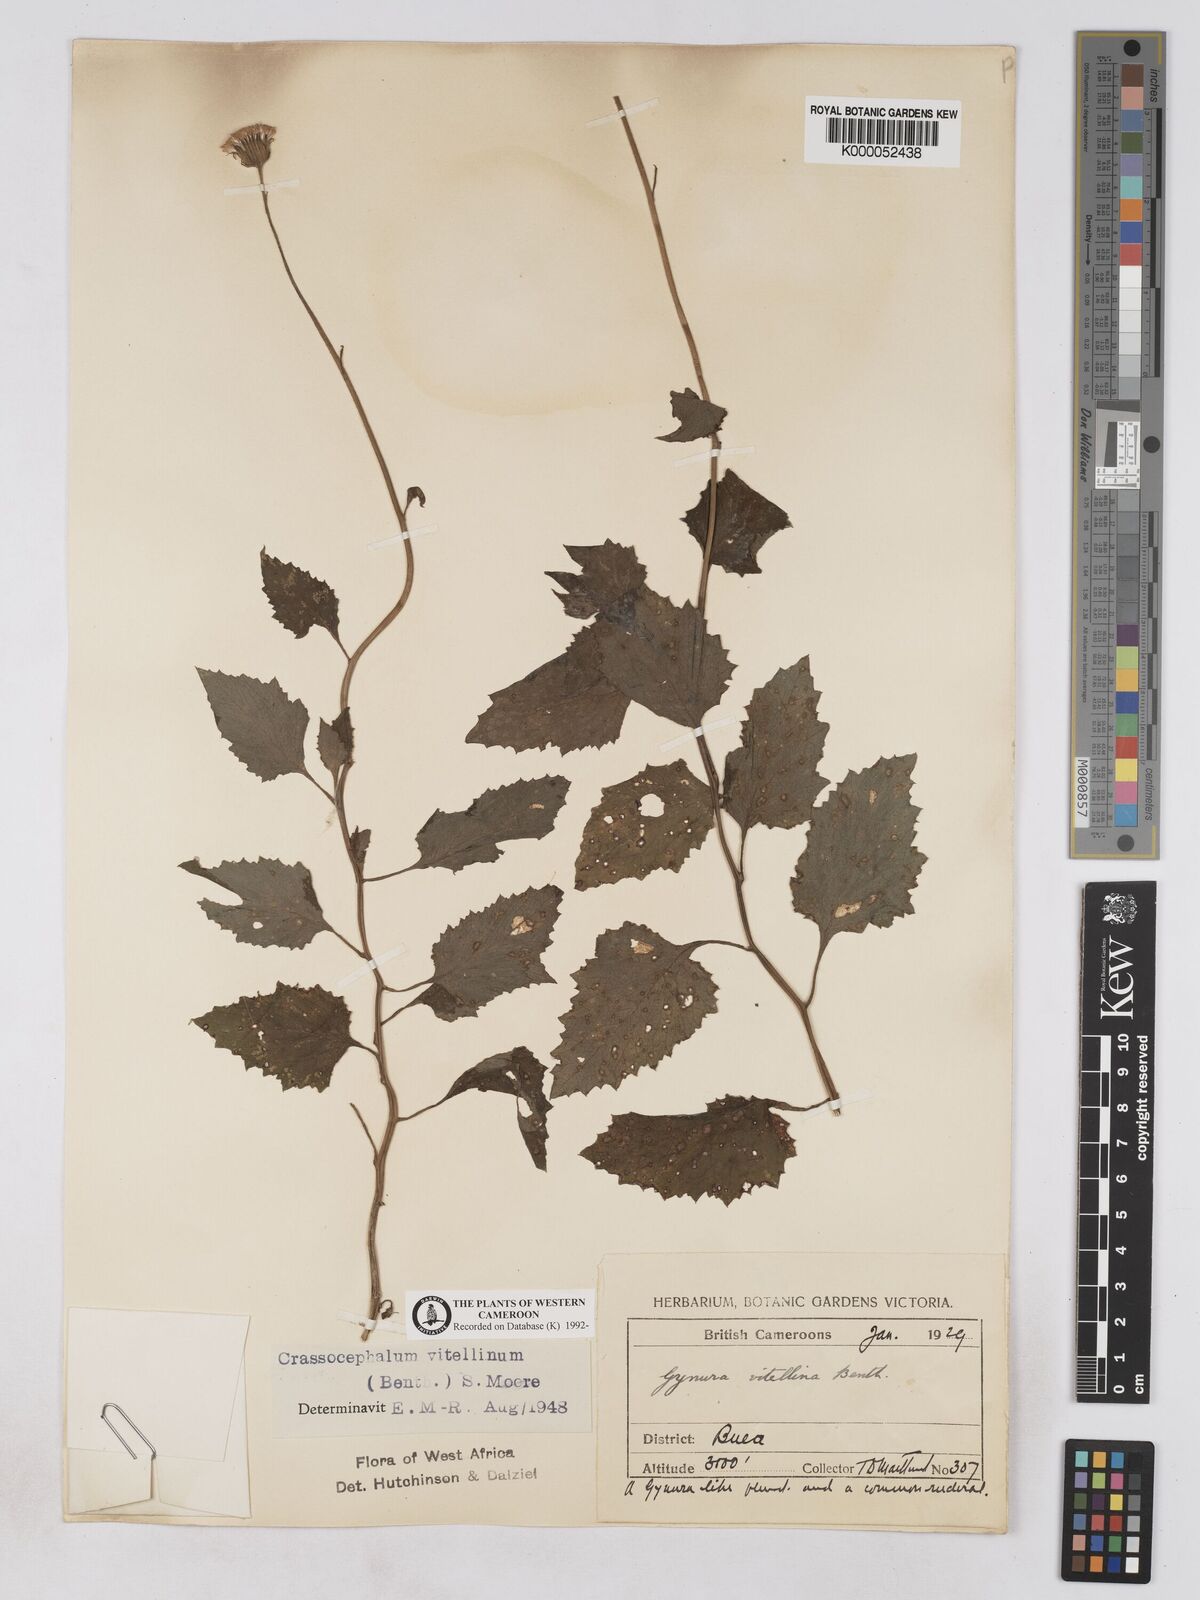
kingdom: Plantae
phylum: Tracheophyta
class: Magnoliopsida
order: Asterales
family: Asteraceae
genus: Crassocephalum
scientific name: Crassocephalum vitellinum
